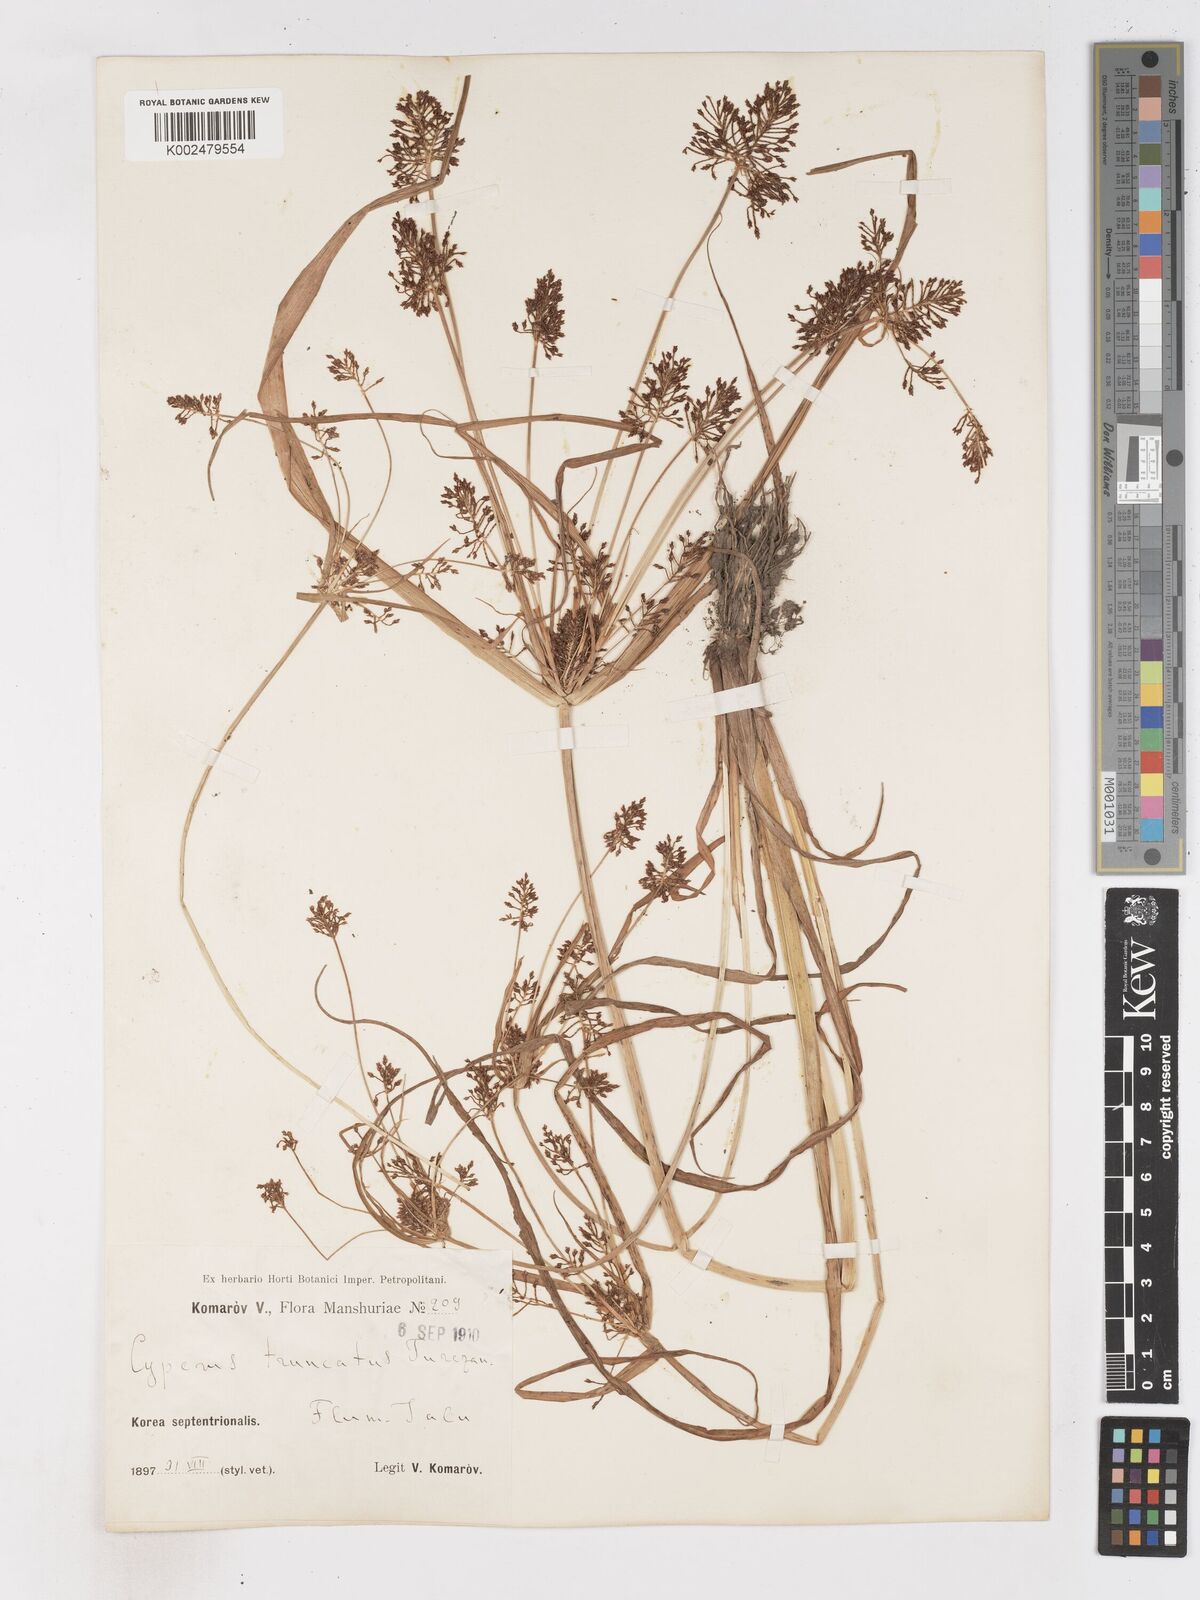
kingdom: Plantae
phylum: Tracheophyta
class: Liliopsida
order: Poales
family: Cyperaceae
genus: Cyperus
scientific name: Cyperus orthostachyus
